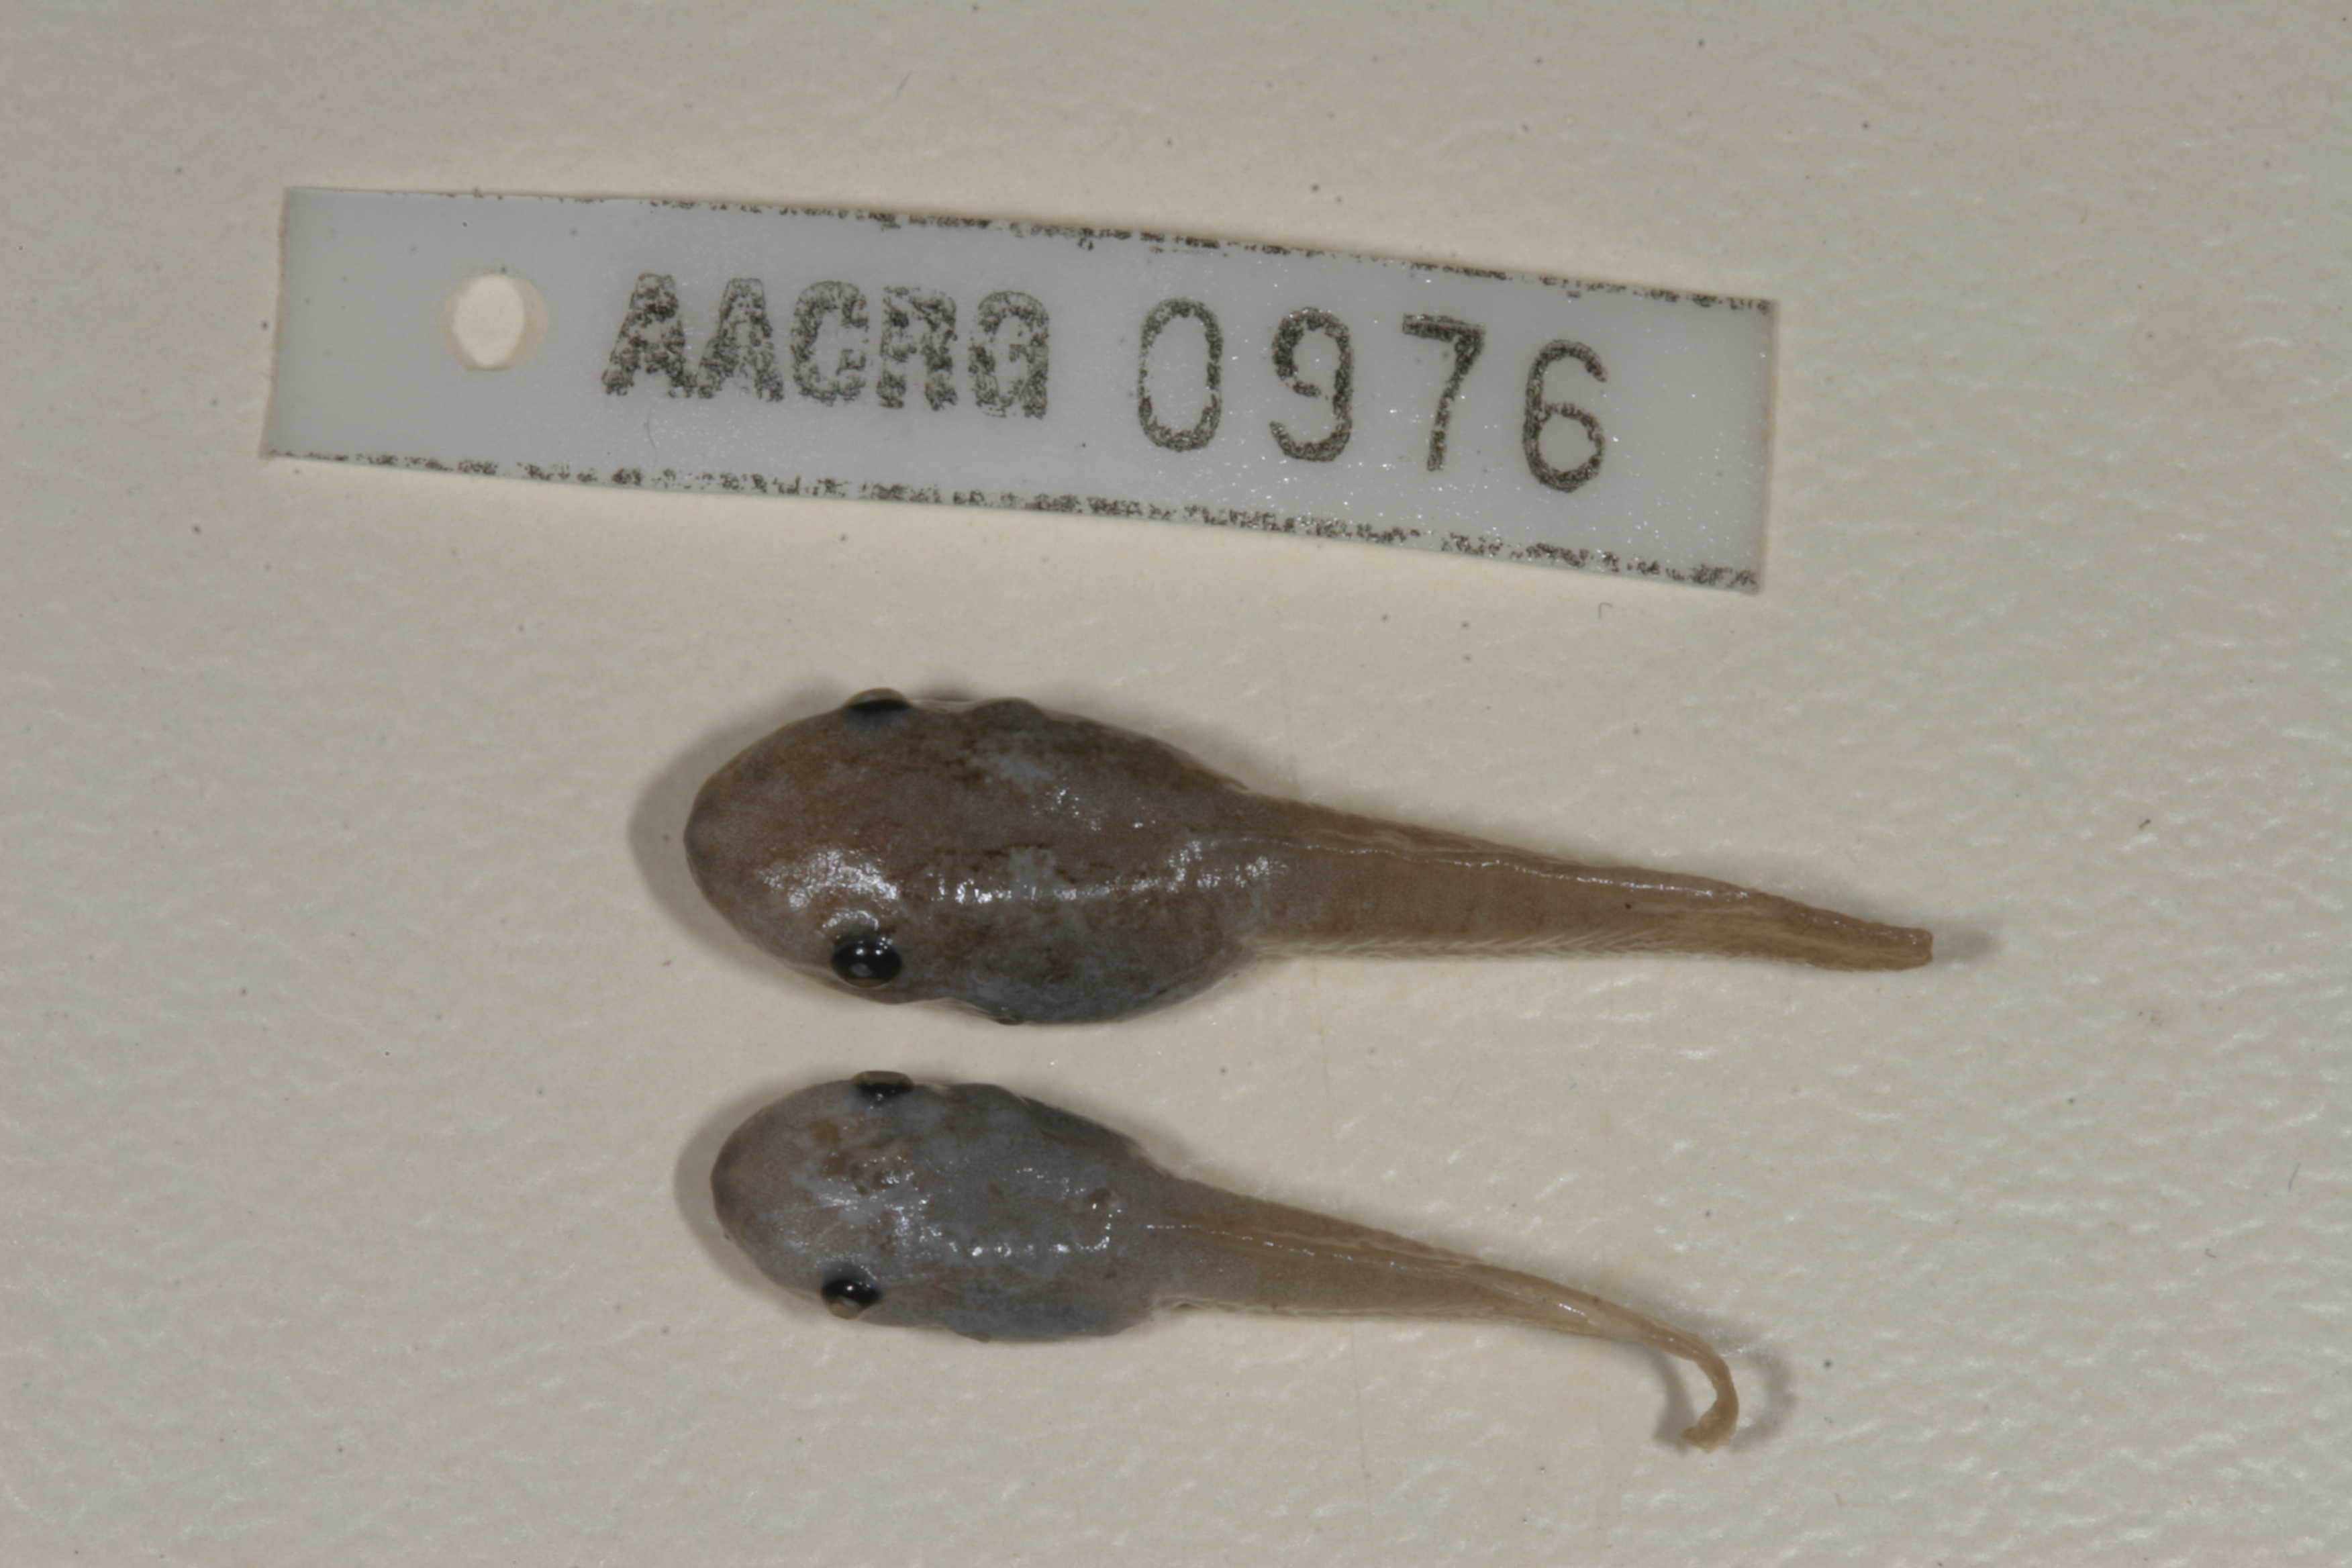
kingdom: Animalia
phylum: Chordata
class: Amphibia
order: Anura
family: Hemisotidae
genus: Hemisus
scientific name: Hemisus marmoratus
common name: Mottled shovel-nosed frog
